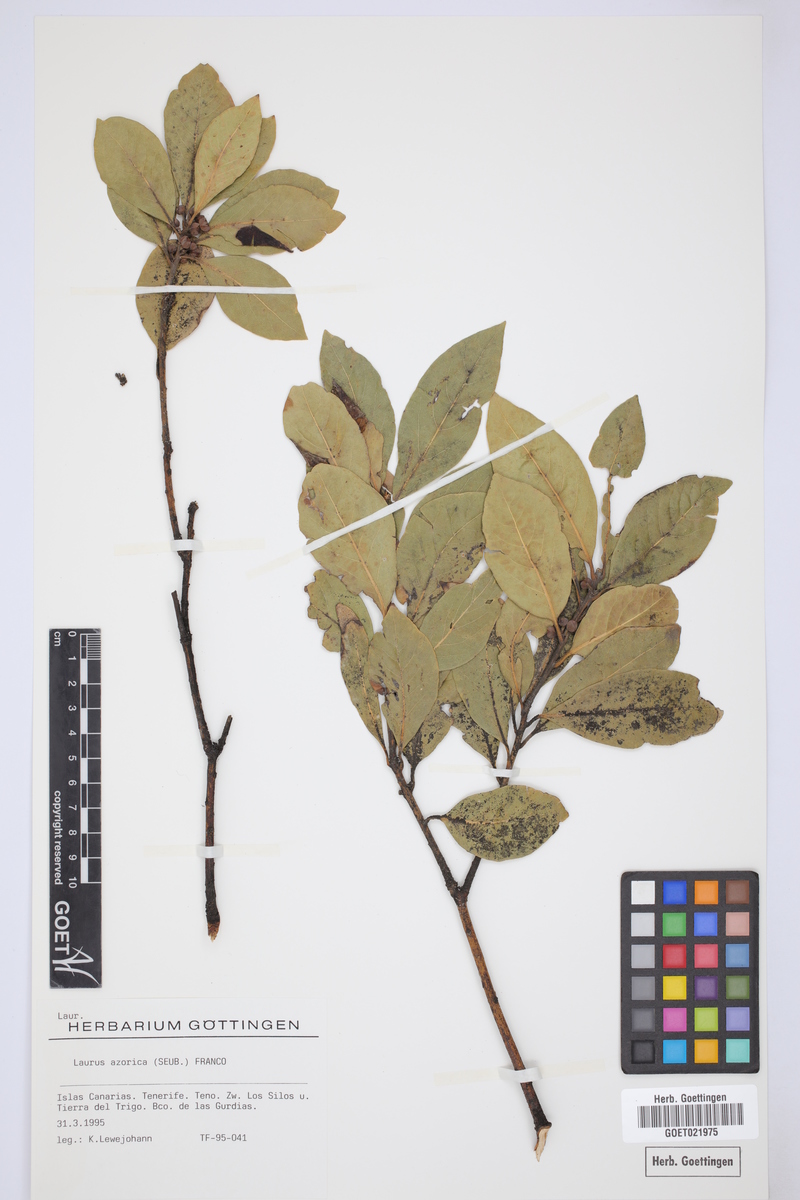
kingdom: Plantae
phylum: Tracheophyta
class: Magnoliopsida
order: Laurales
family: Lauraceae
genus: Laurus
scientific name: Laurus azorica
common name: Macaronesian laurel
